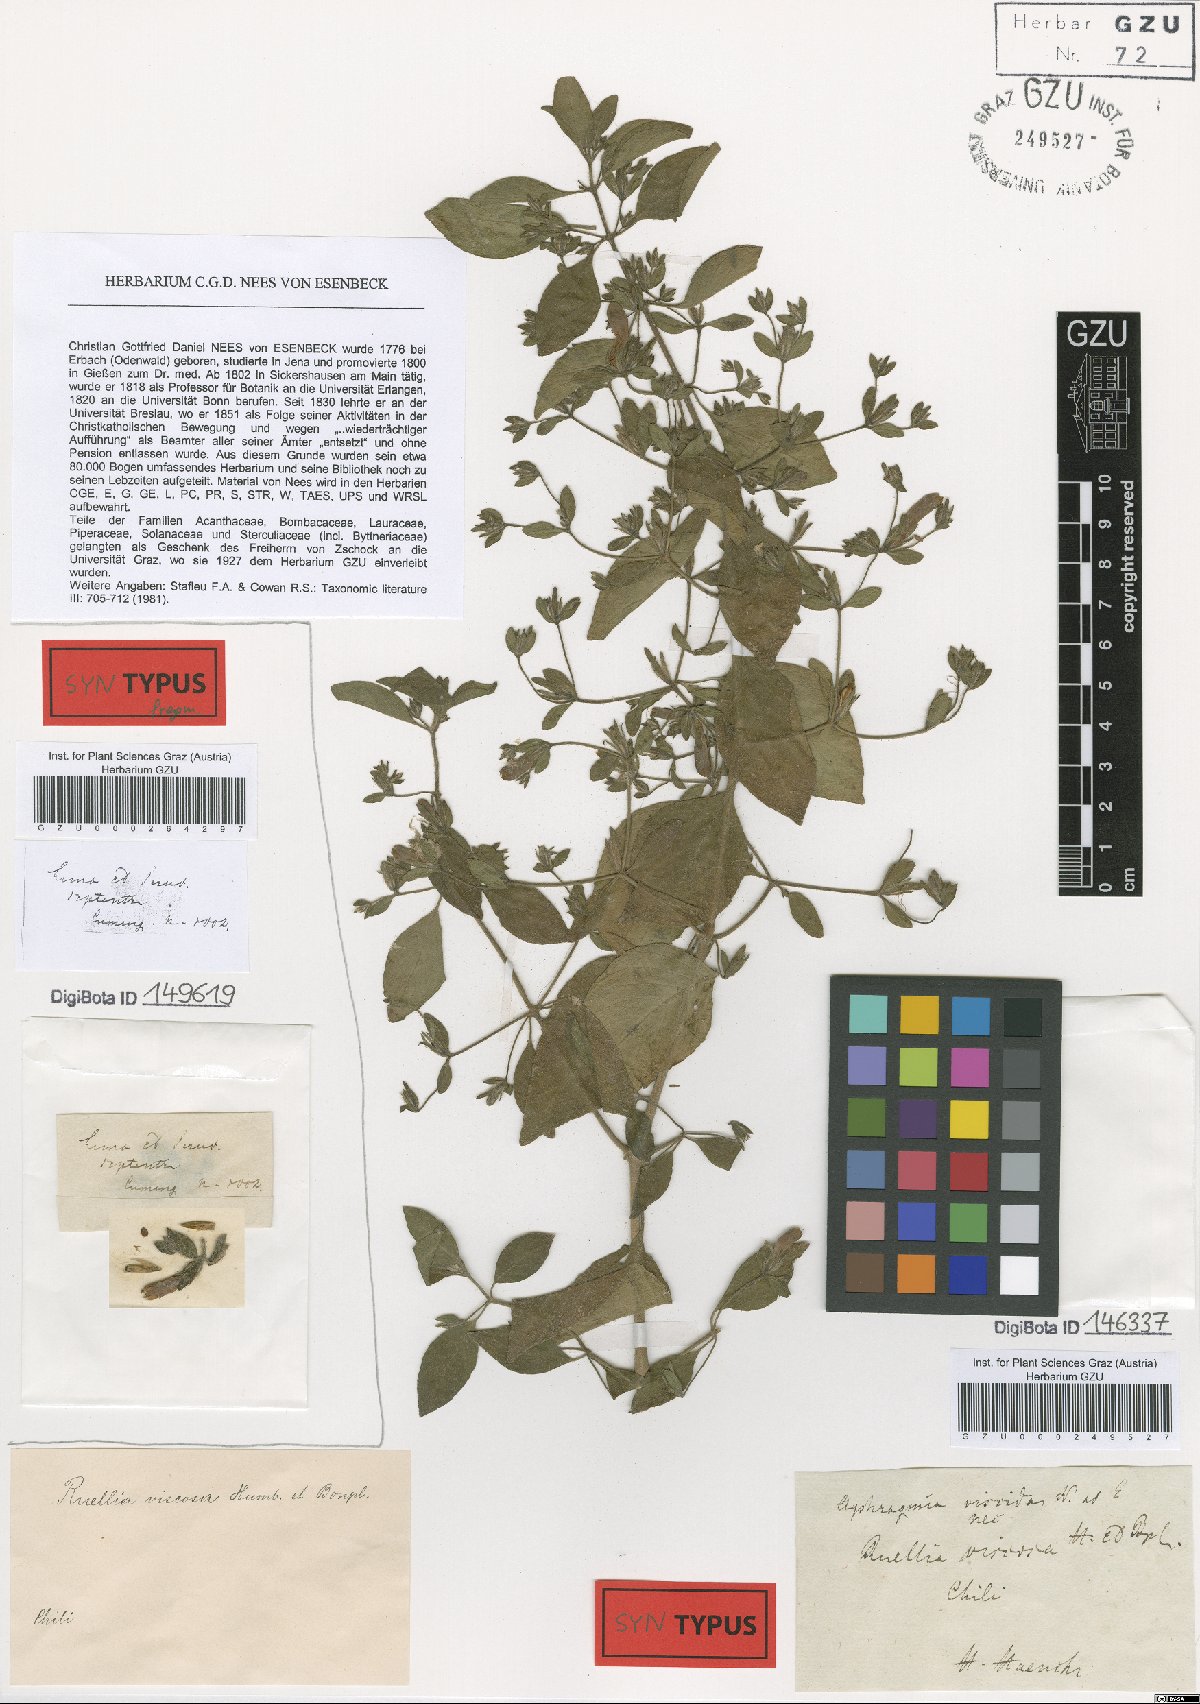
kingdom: Plantae
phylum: Tracheophyta
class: Magnoliopsida
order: Lamiales
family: Acanthaceae
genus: Ruellia
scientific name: Ruellia floribunda
